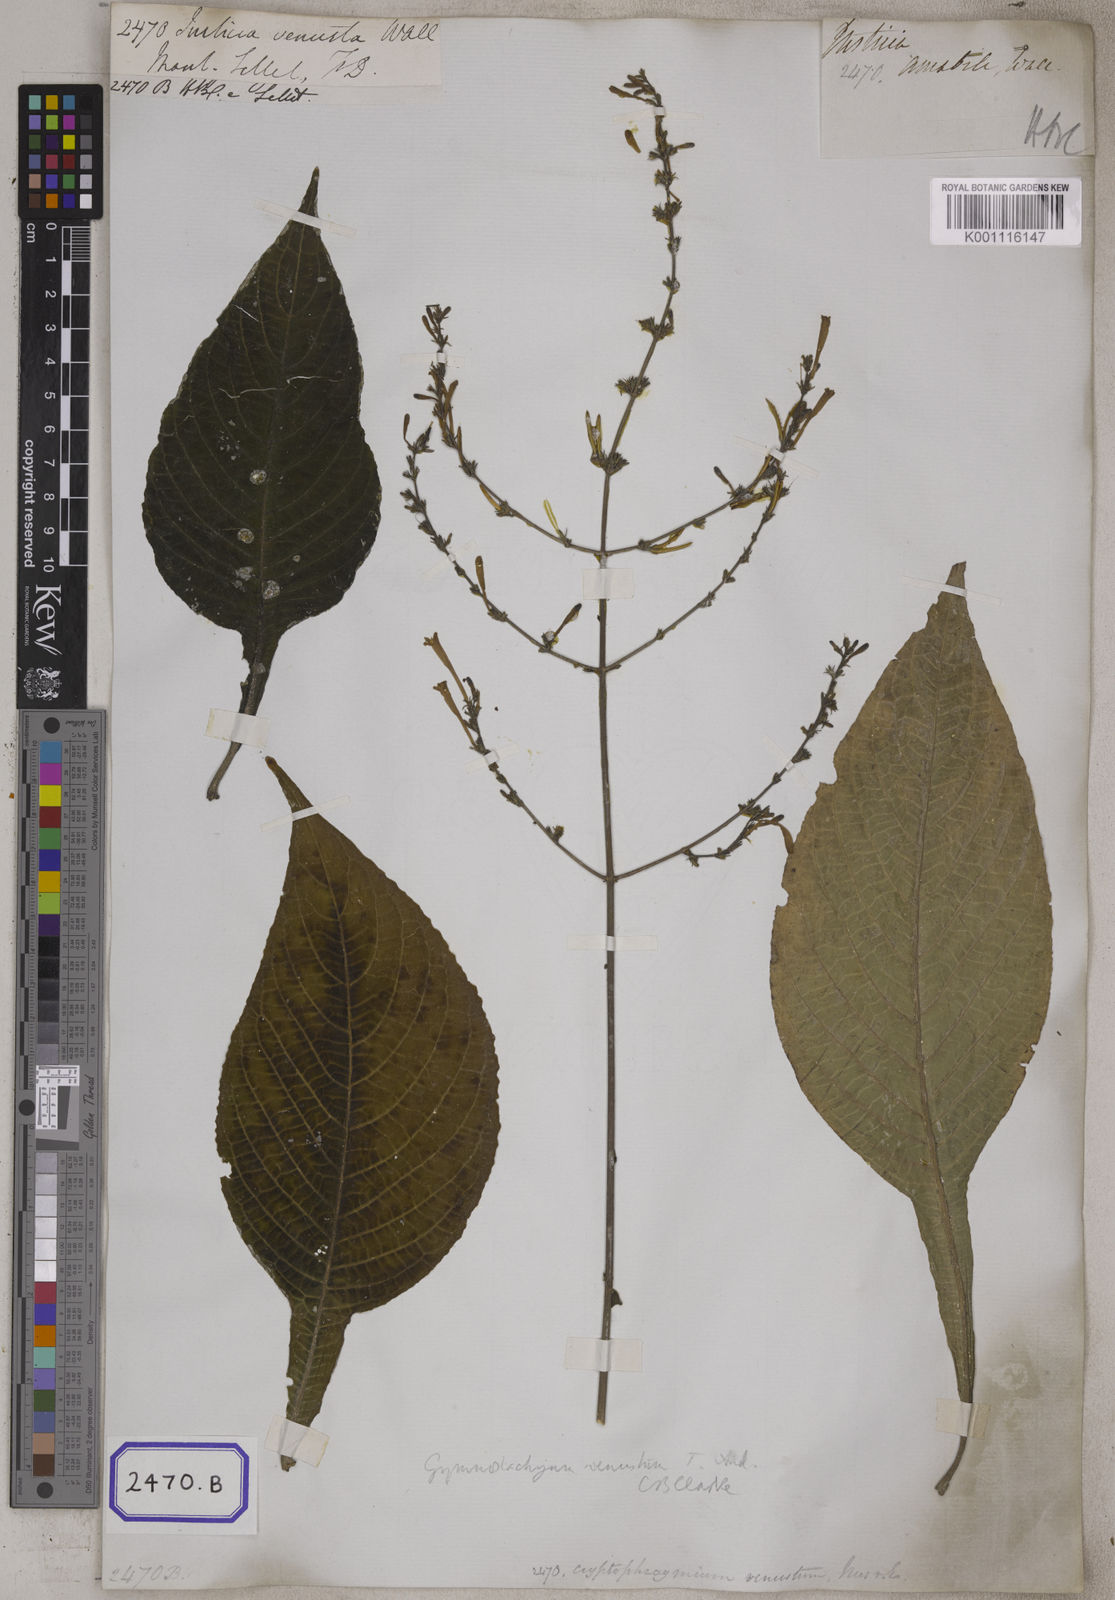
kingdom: Plantae
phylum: Tracheophyta
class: Magnoliopsida
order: Lamiales
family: Acanthaceae
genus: Gymnostachyum
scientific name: Gymnostachyum venustum
